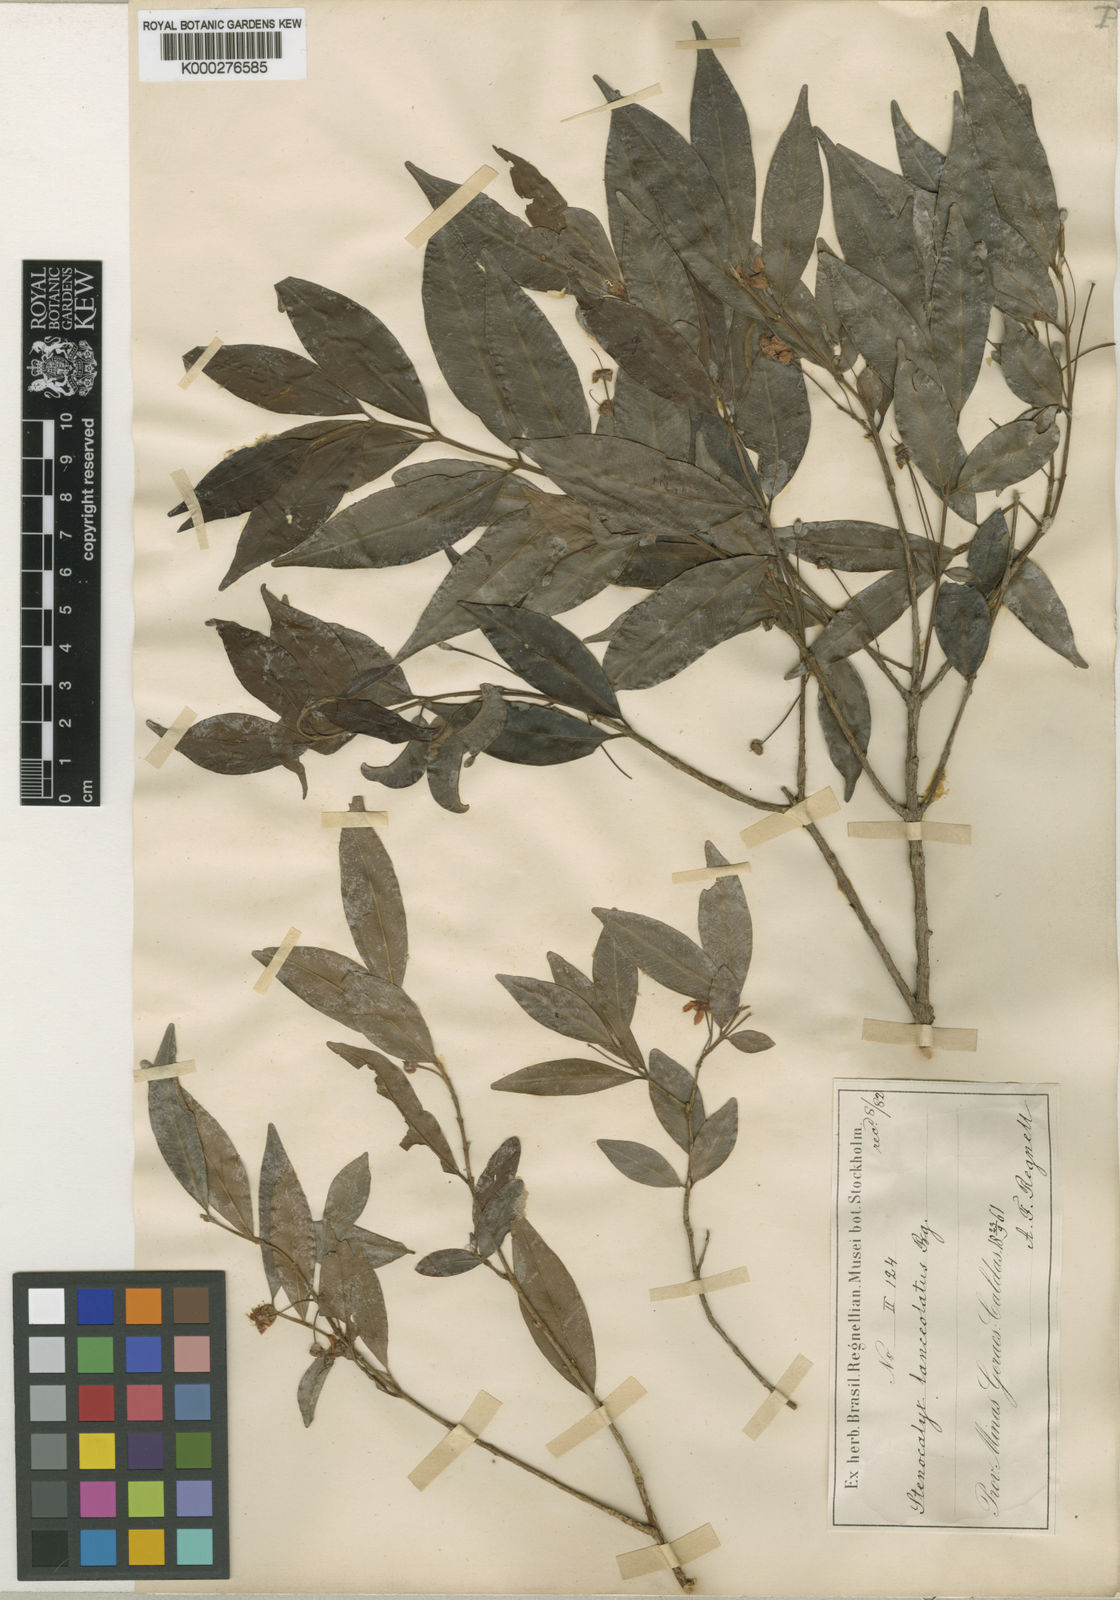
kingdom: Plantae
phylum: Tracheophyta
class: Magnoliopsida
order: Myrtales
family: Myrtaceae
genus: Eugenia
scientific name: Eugenia
